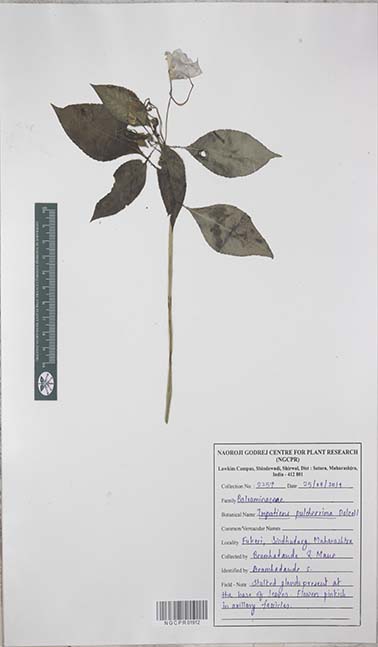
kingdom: Plantae
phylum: Tracheophyta
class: Magnoliopsida
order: Ericales
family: Balsaminaceae
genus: Impatiens
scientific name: Impatiens pulcherrima
